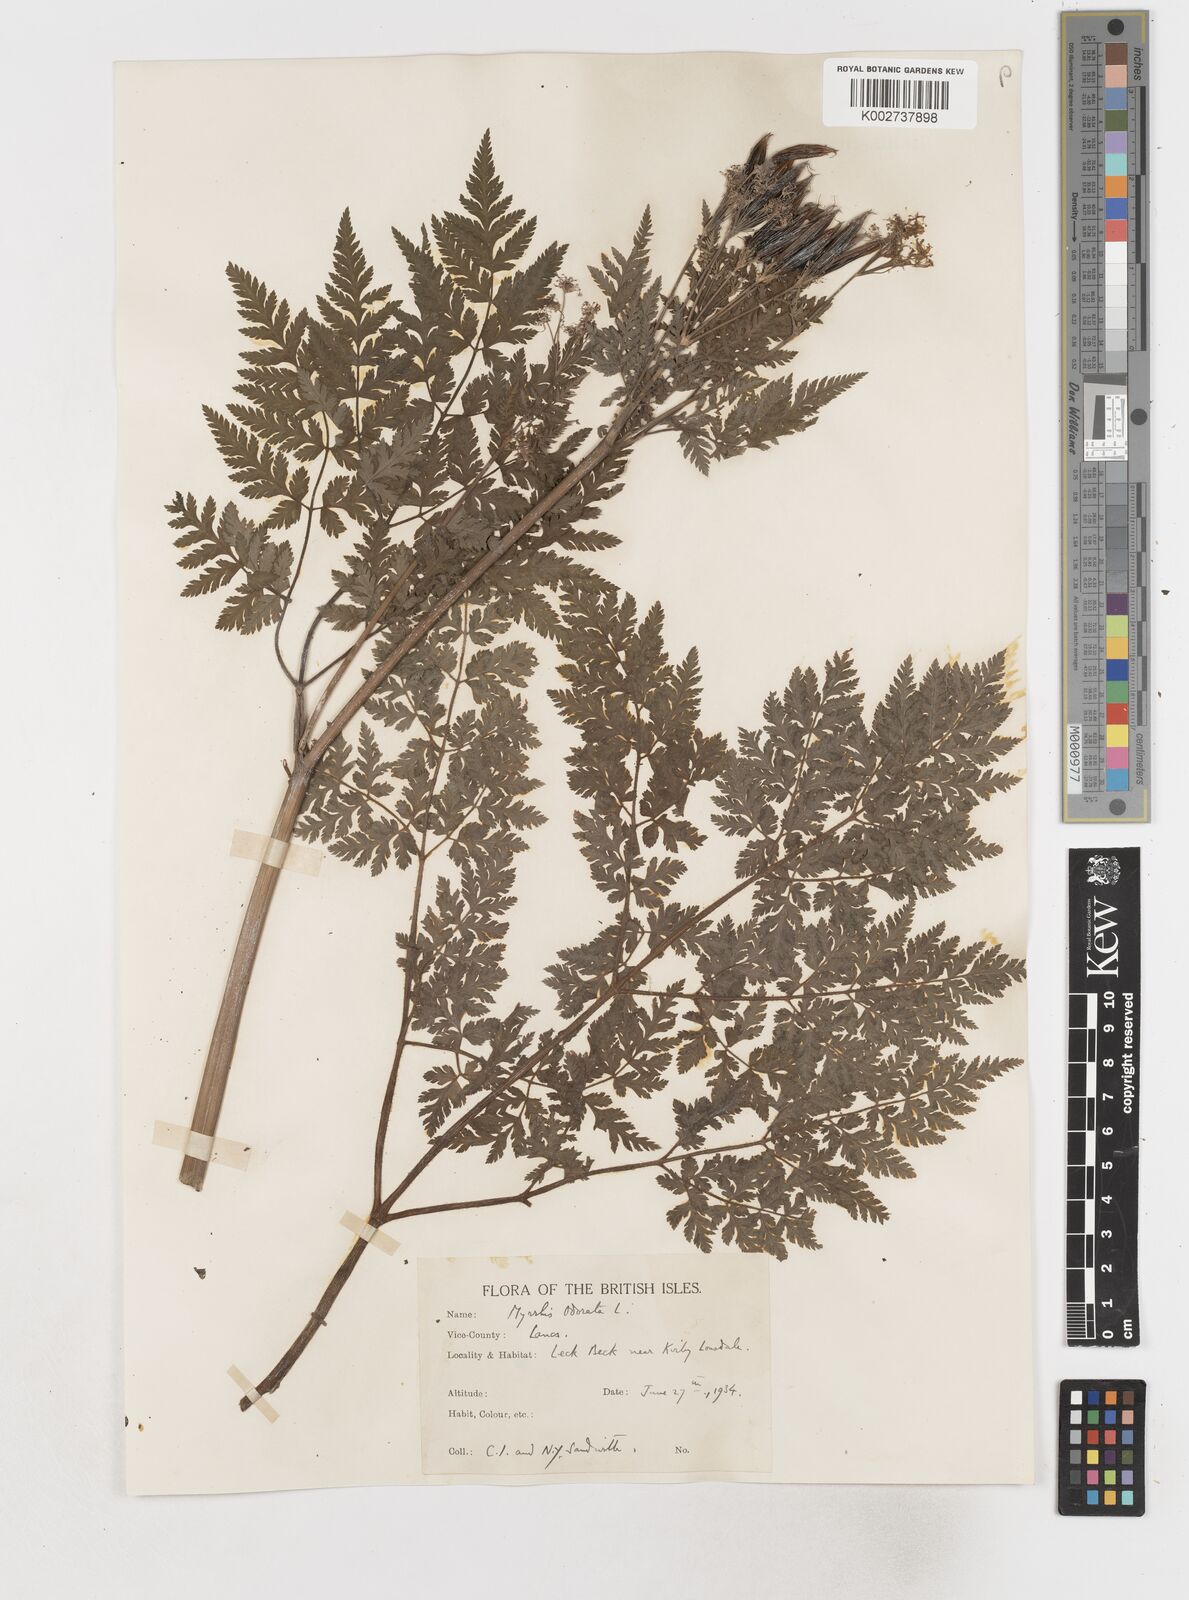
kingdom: Plantae
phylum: Tracheophyta
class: Magnoliopsida
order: Apiales
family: Apiaceae
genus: Myrrhis
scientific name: Myrrhis odorata
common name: Sweet cicely
